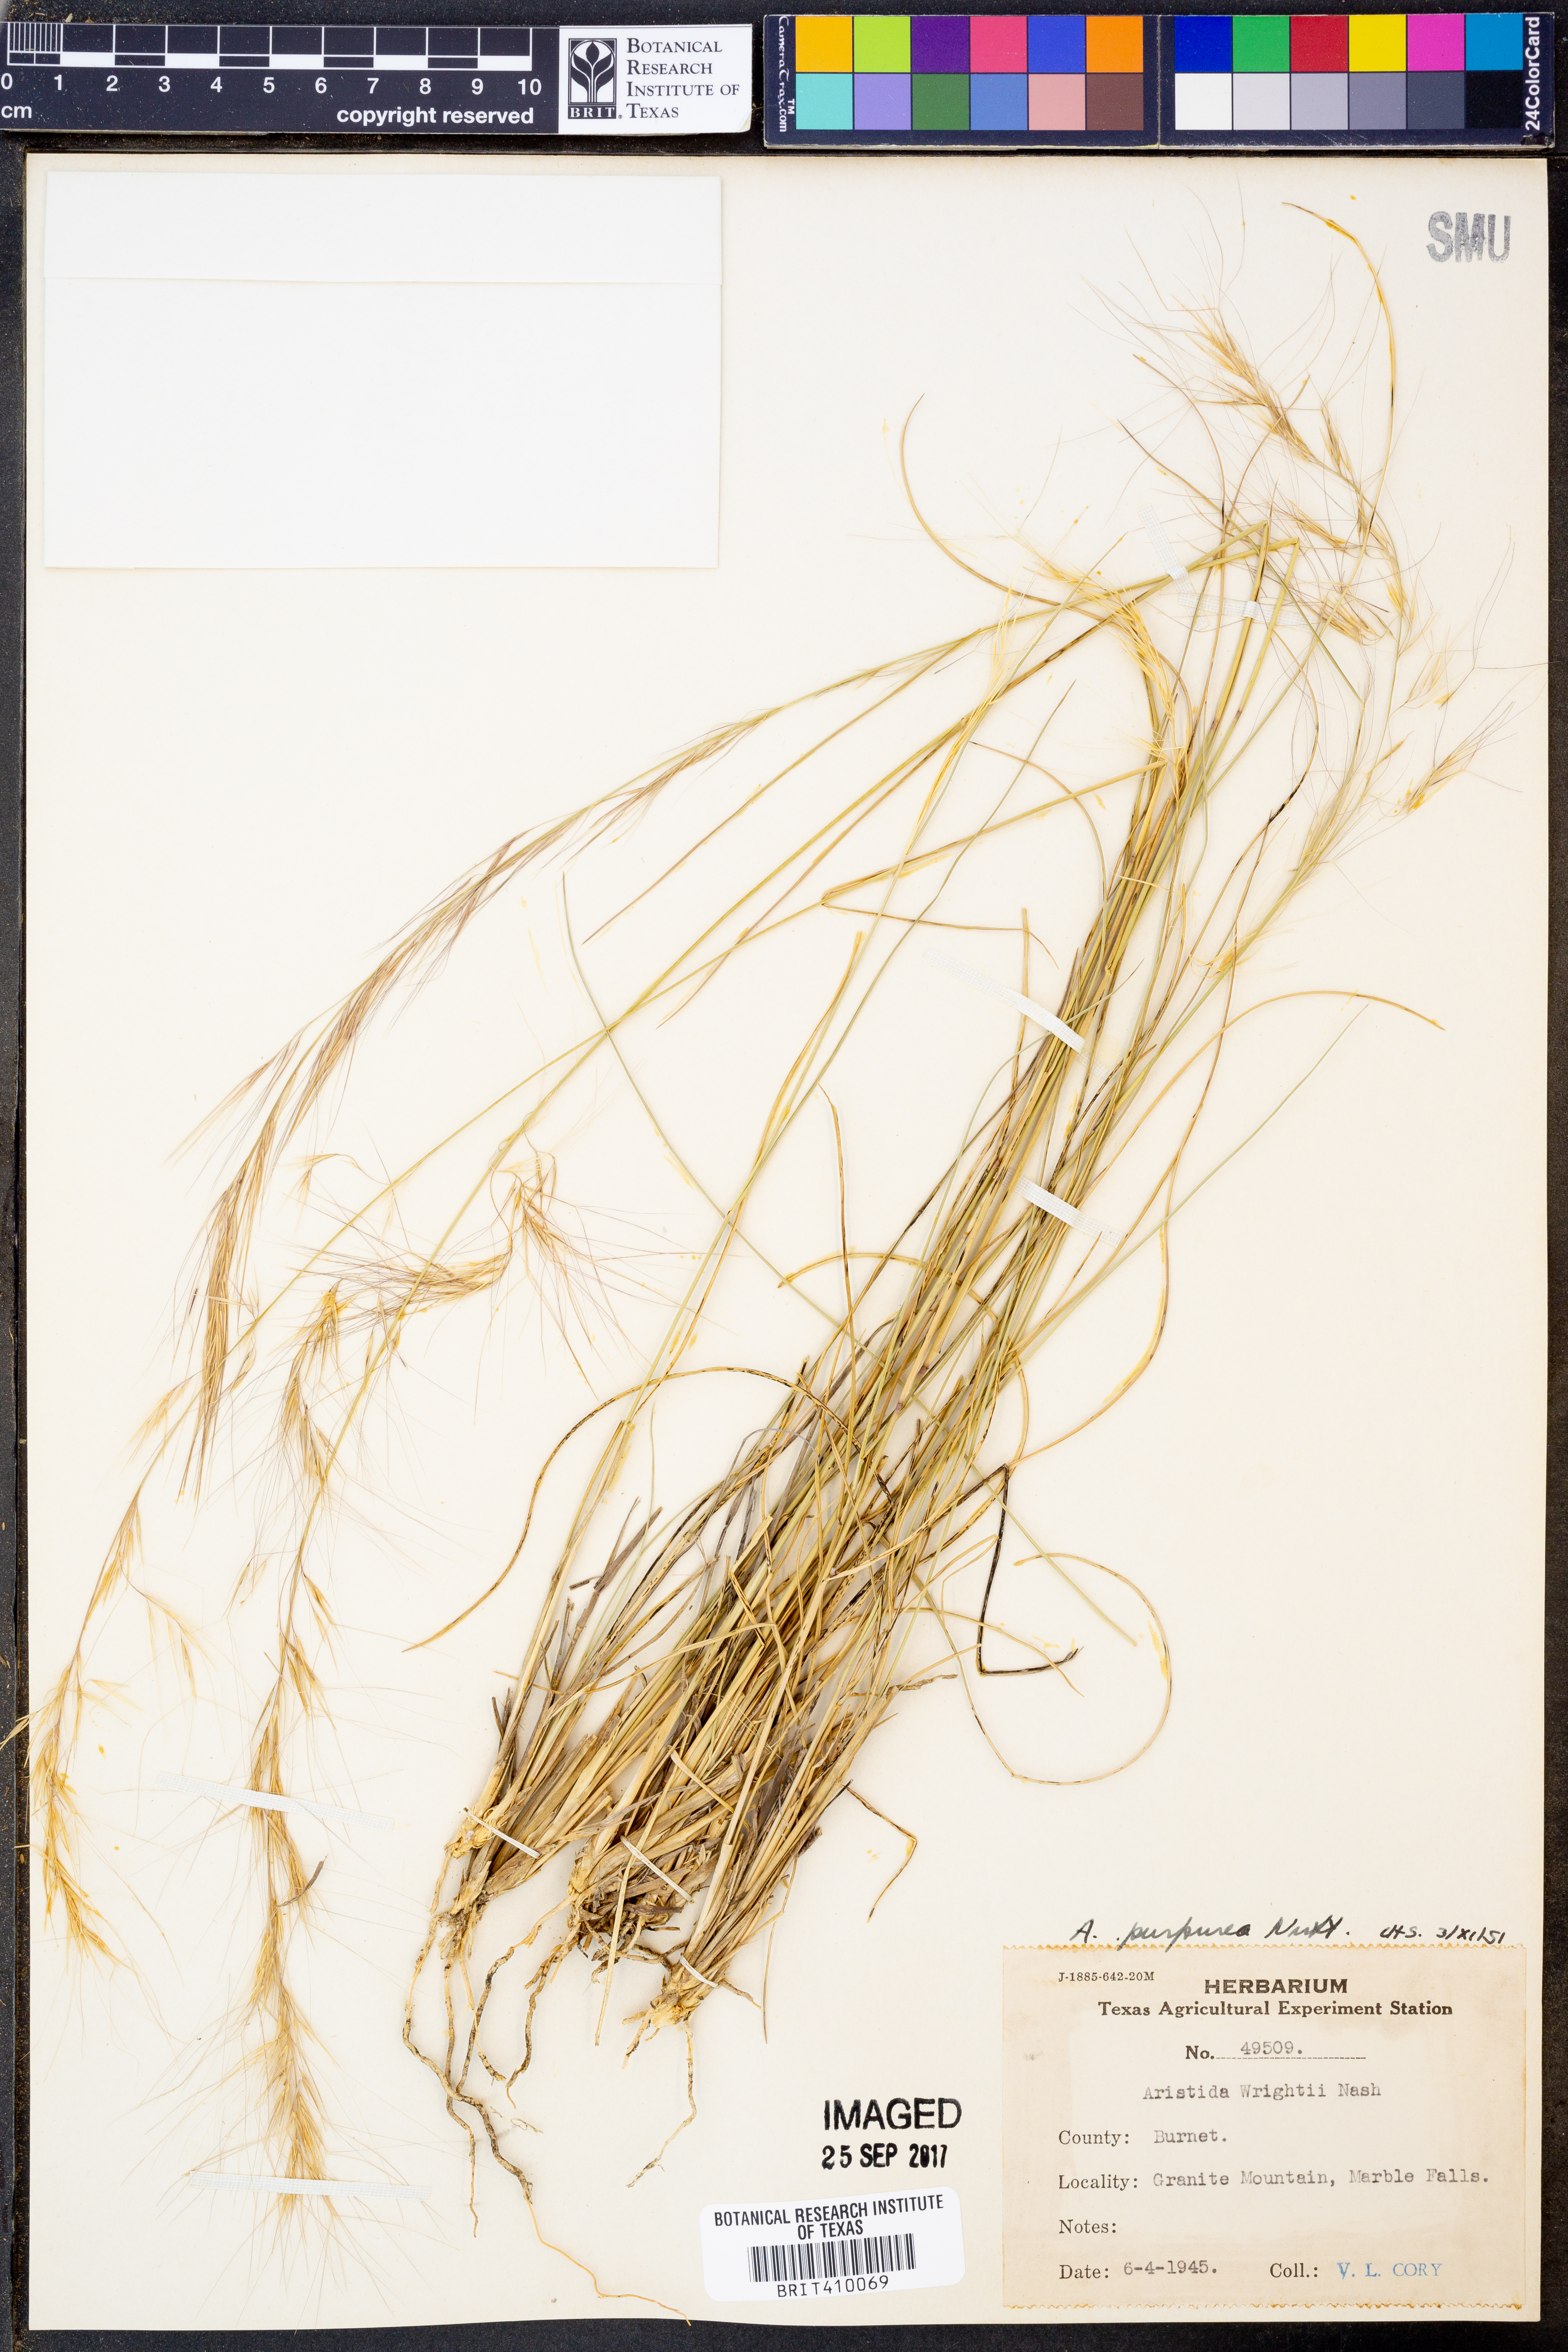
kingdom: Plantae
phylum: Tracheophyta
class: Liliopsida
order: Poales
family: Poaceae
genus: Aristida
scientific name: Aristida purpurea
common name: Purple threeawn
